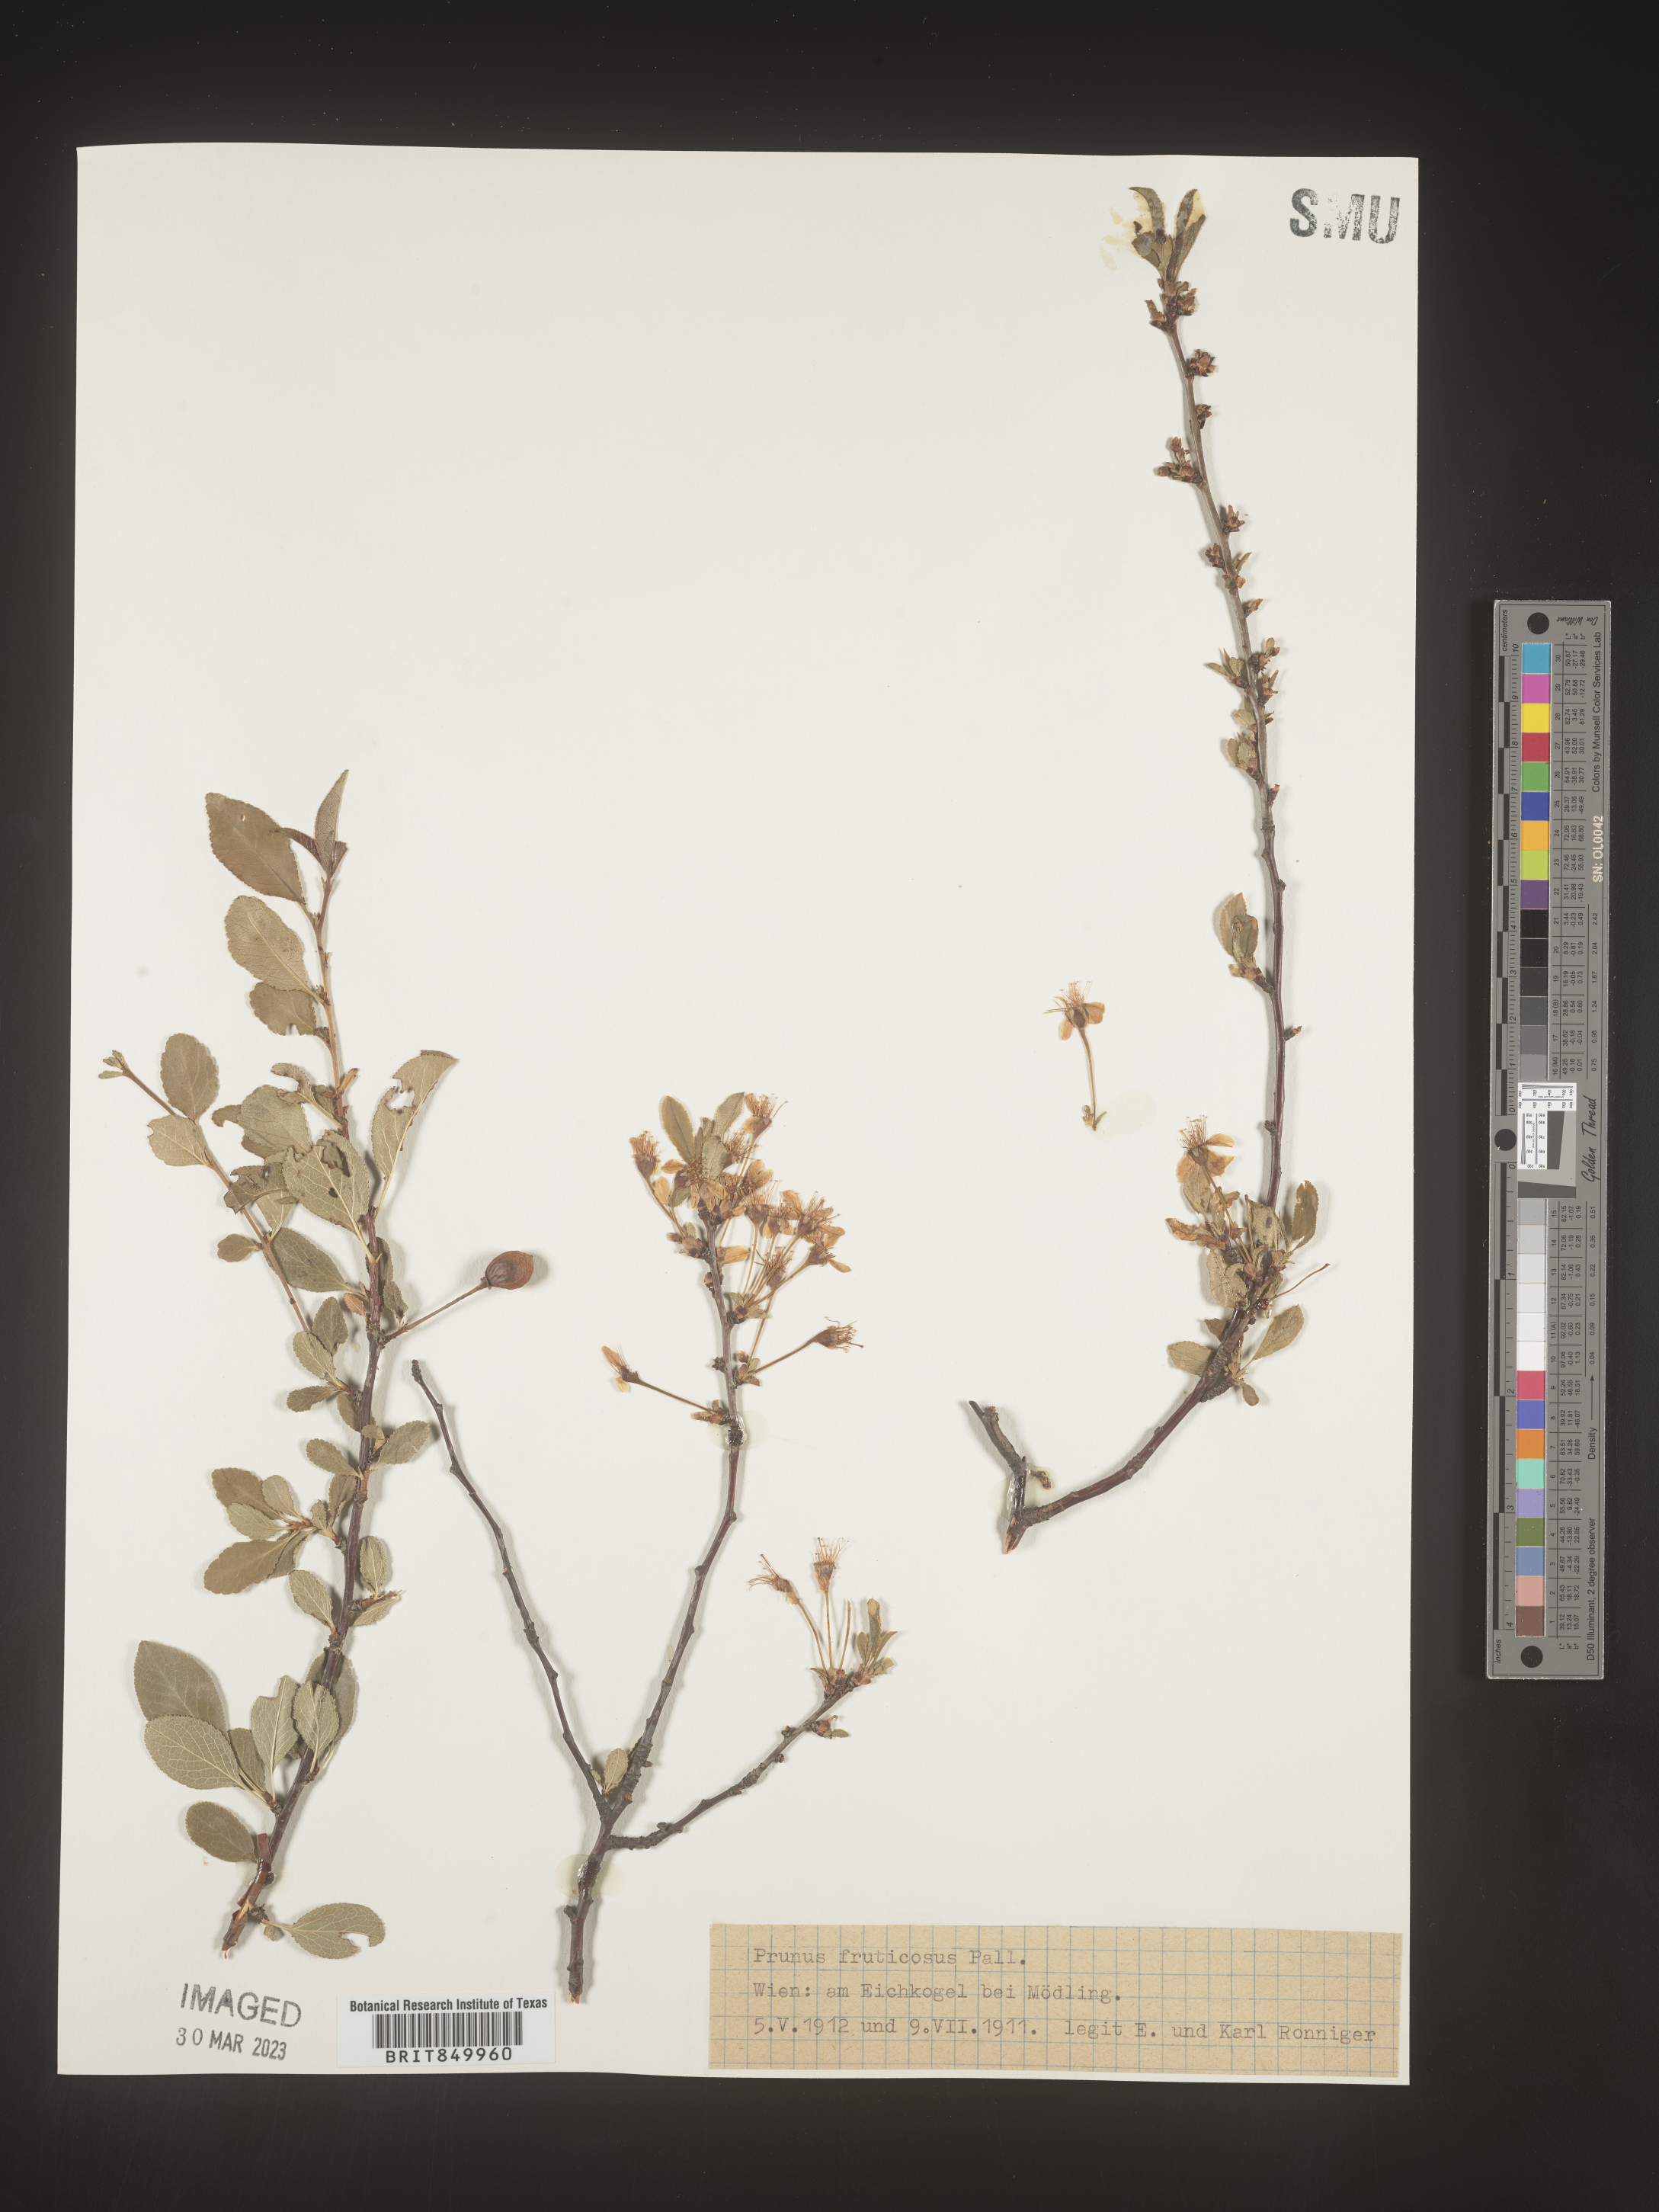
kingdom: Plantae
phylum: Tracheophyta
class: Magnoliopsida
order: Rosales
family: Rosaceae
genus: Prunus
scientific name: Prunus
